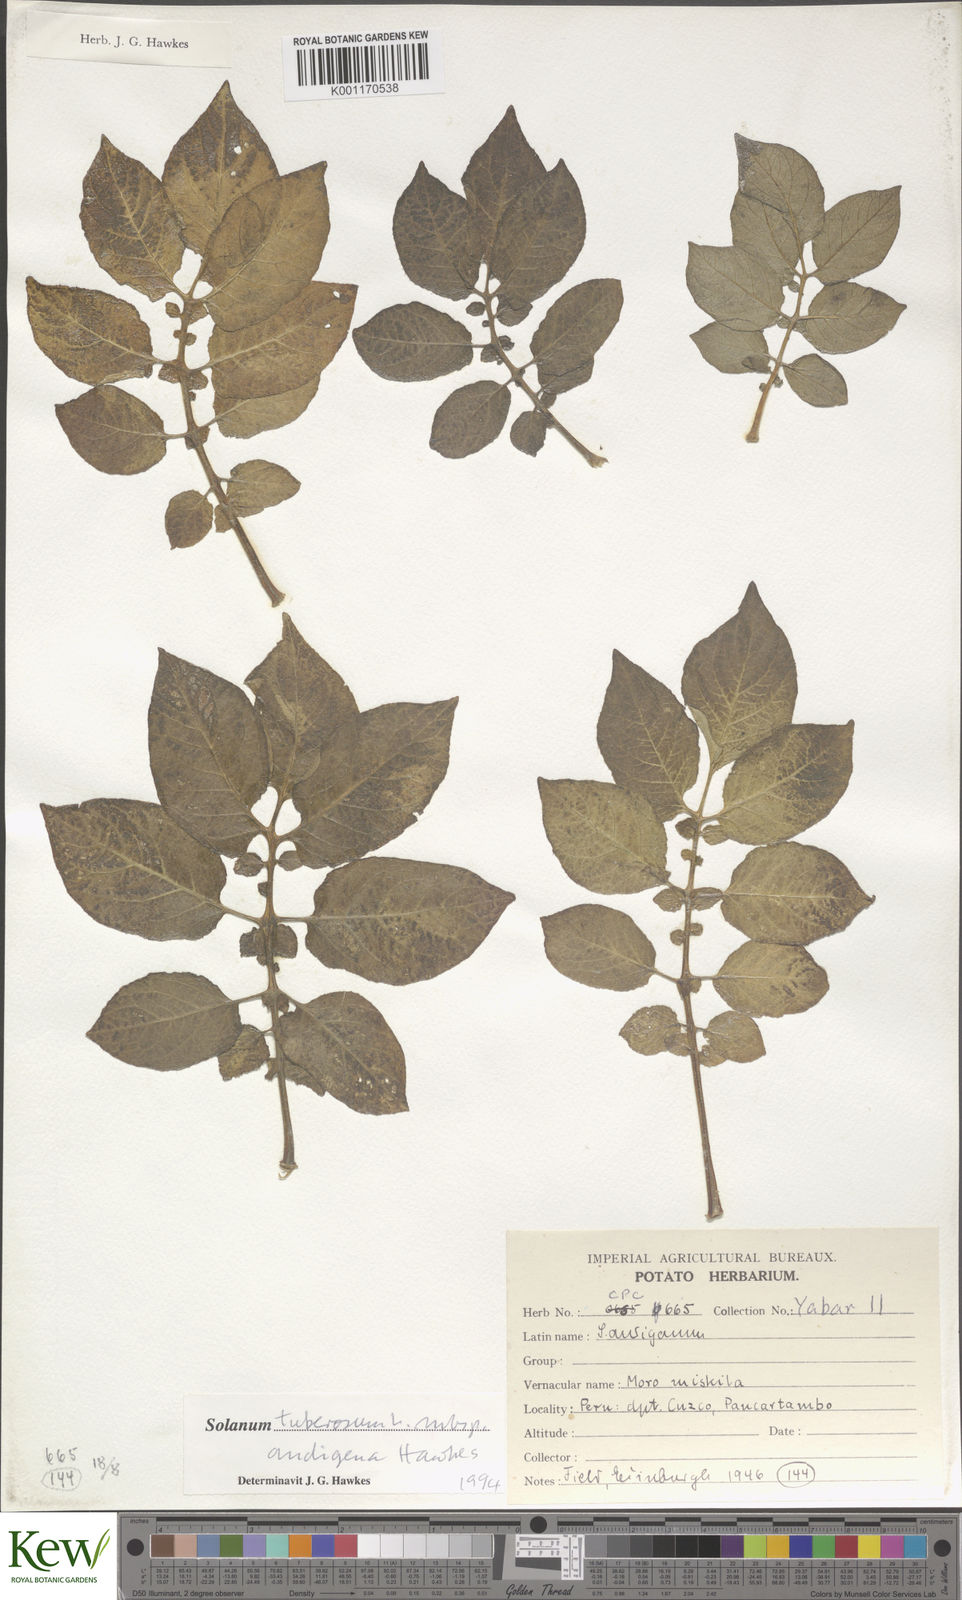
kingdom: Plantae
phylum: Tracheophyta
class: Magnoliopsida
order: Solanales
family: Solanaceae
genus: Solanum
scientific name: Solanum tuberosum
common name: Potato
